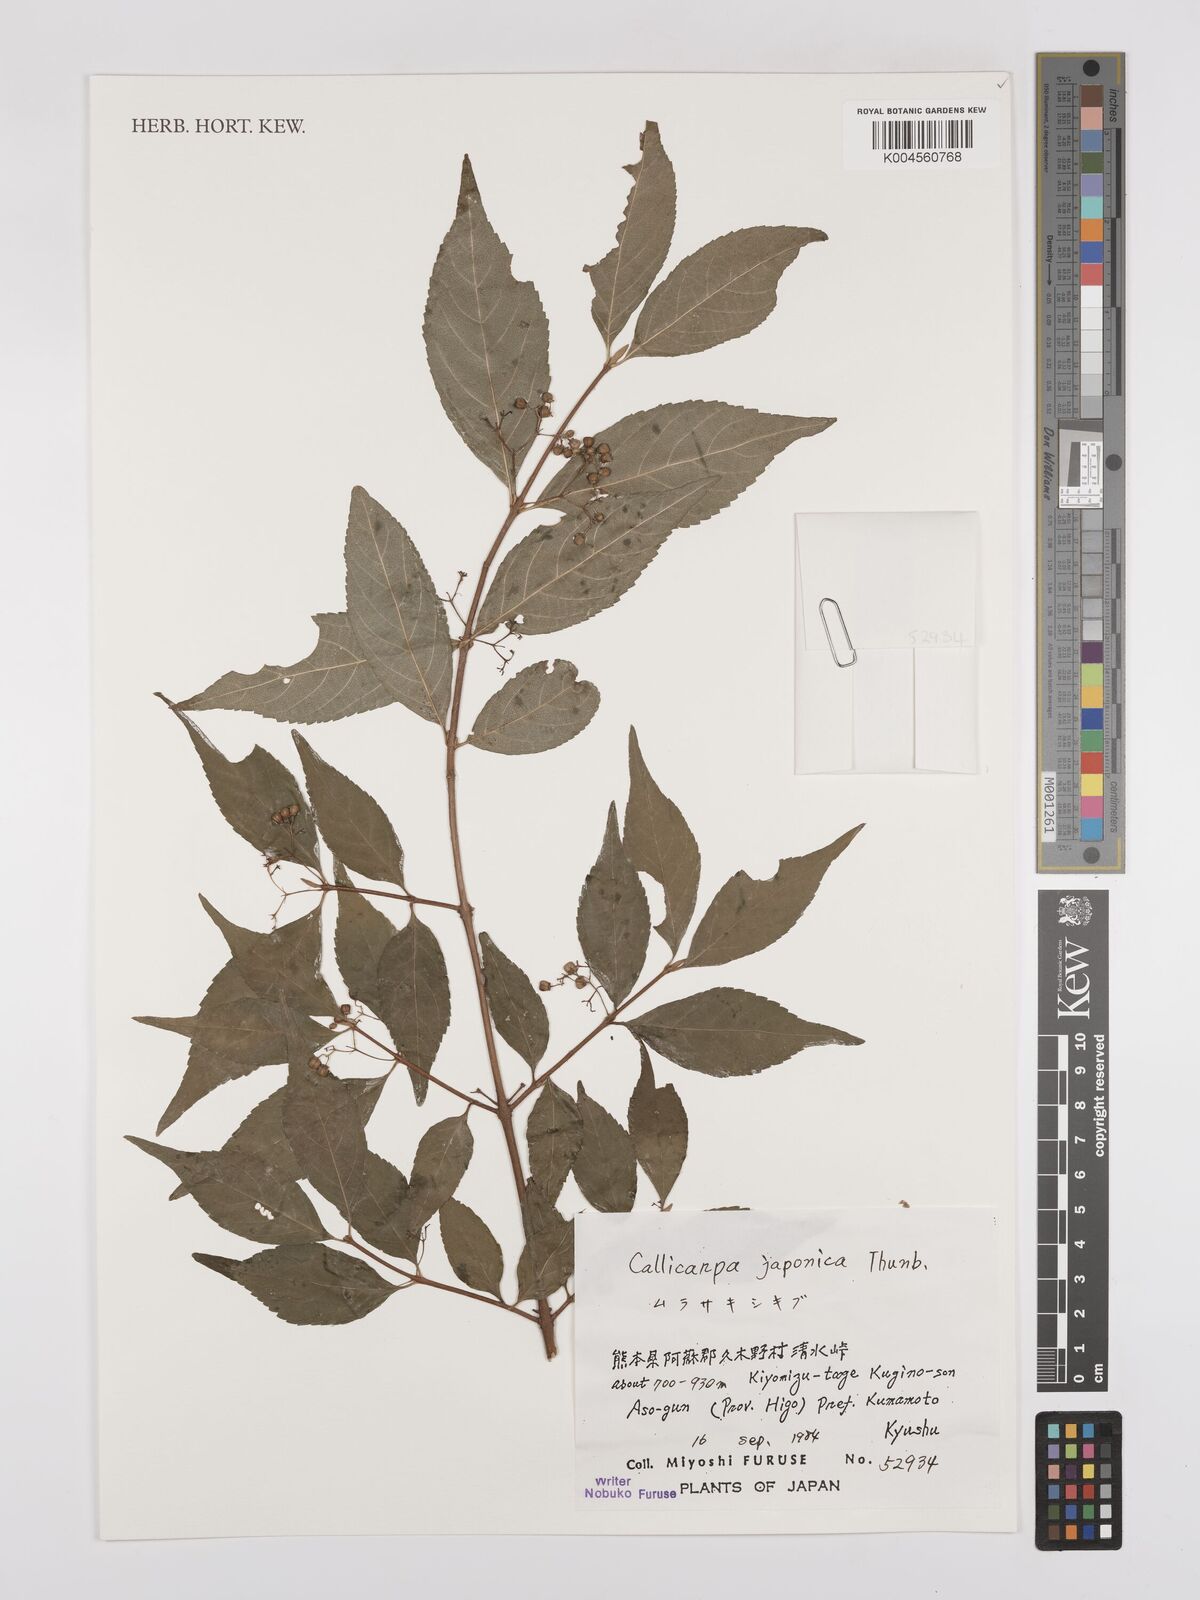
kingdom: Plantae
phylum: Tracheophyta
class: Magnoliopsida
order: Lamiales
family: Lamiaceae
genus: Callicarpa
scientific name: Callicarpa japonica
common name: Japanese beauty-berry
